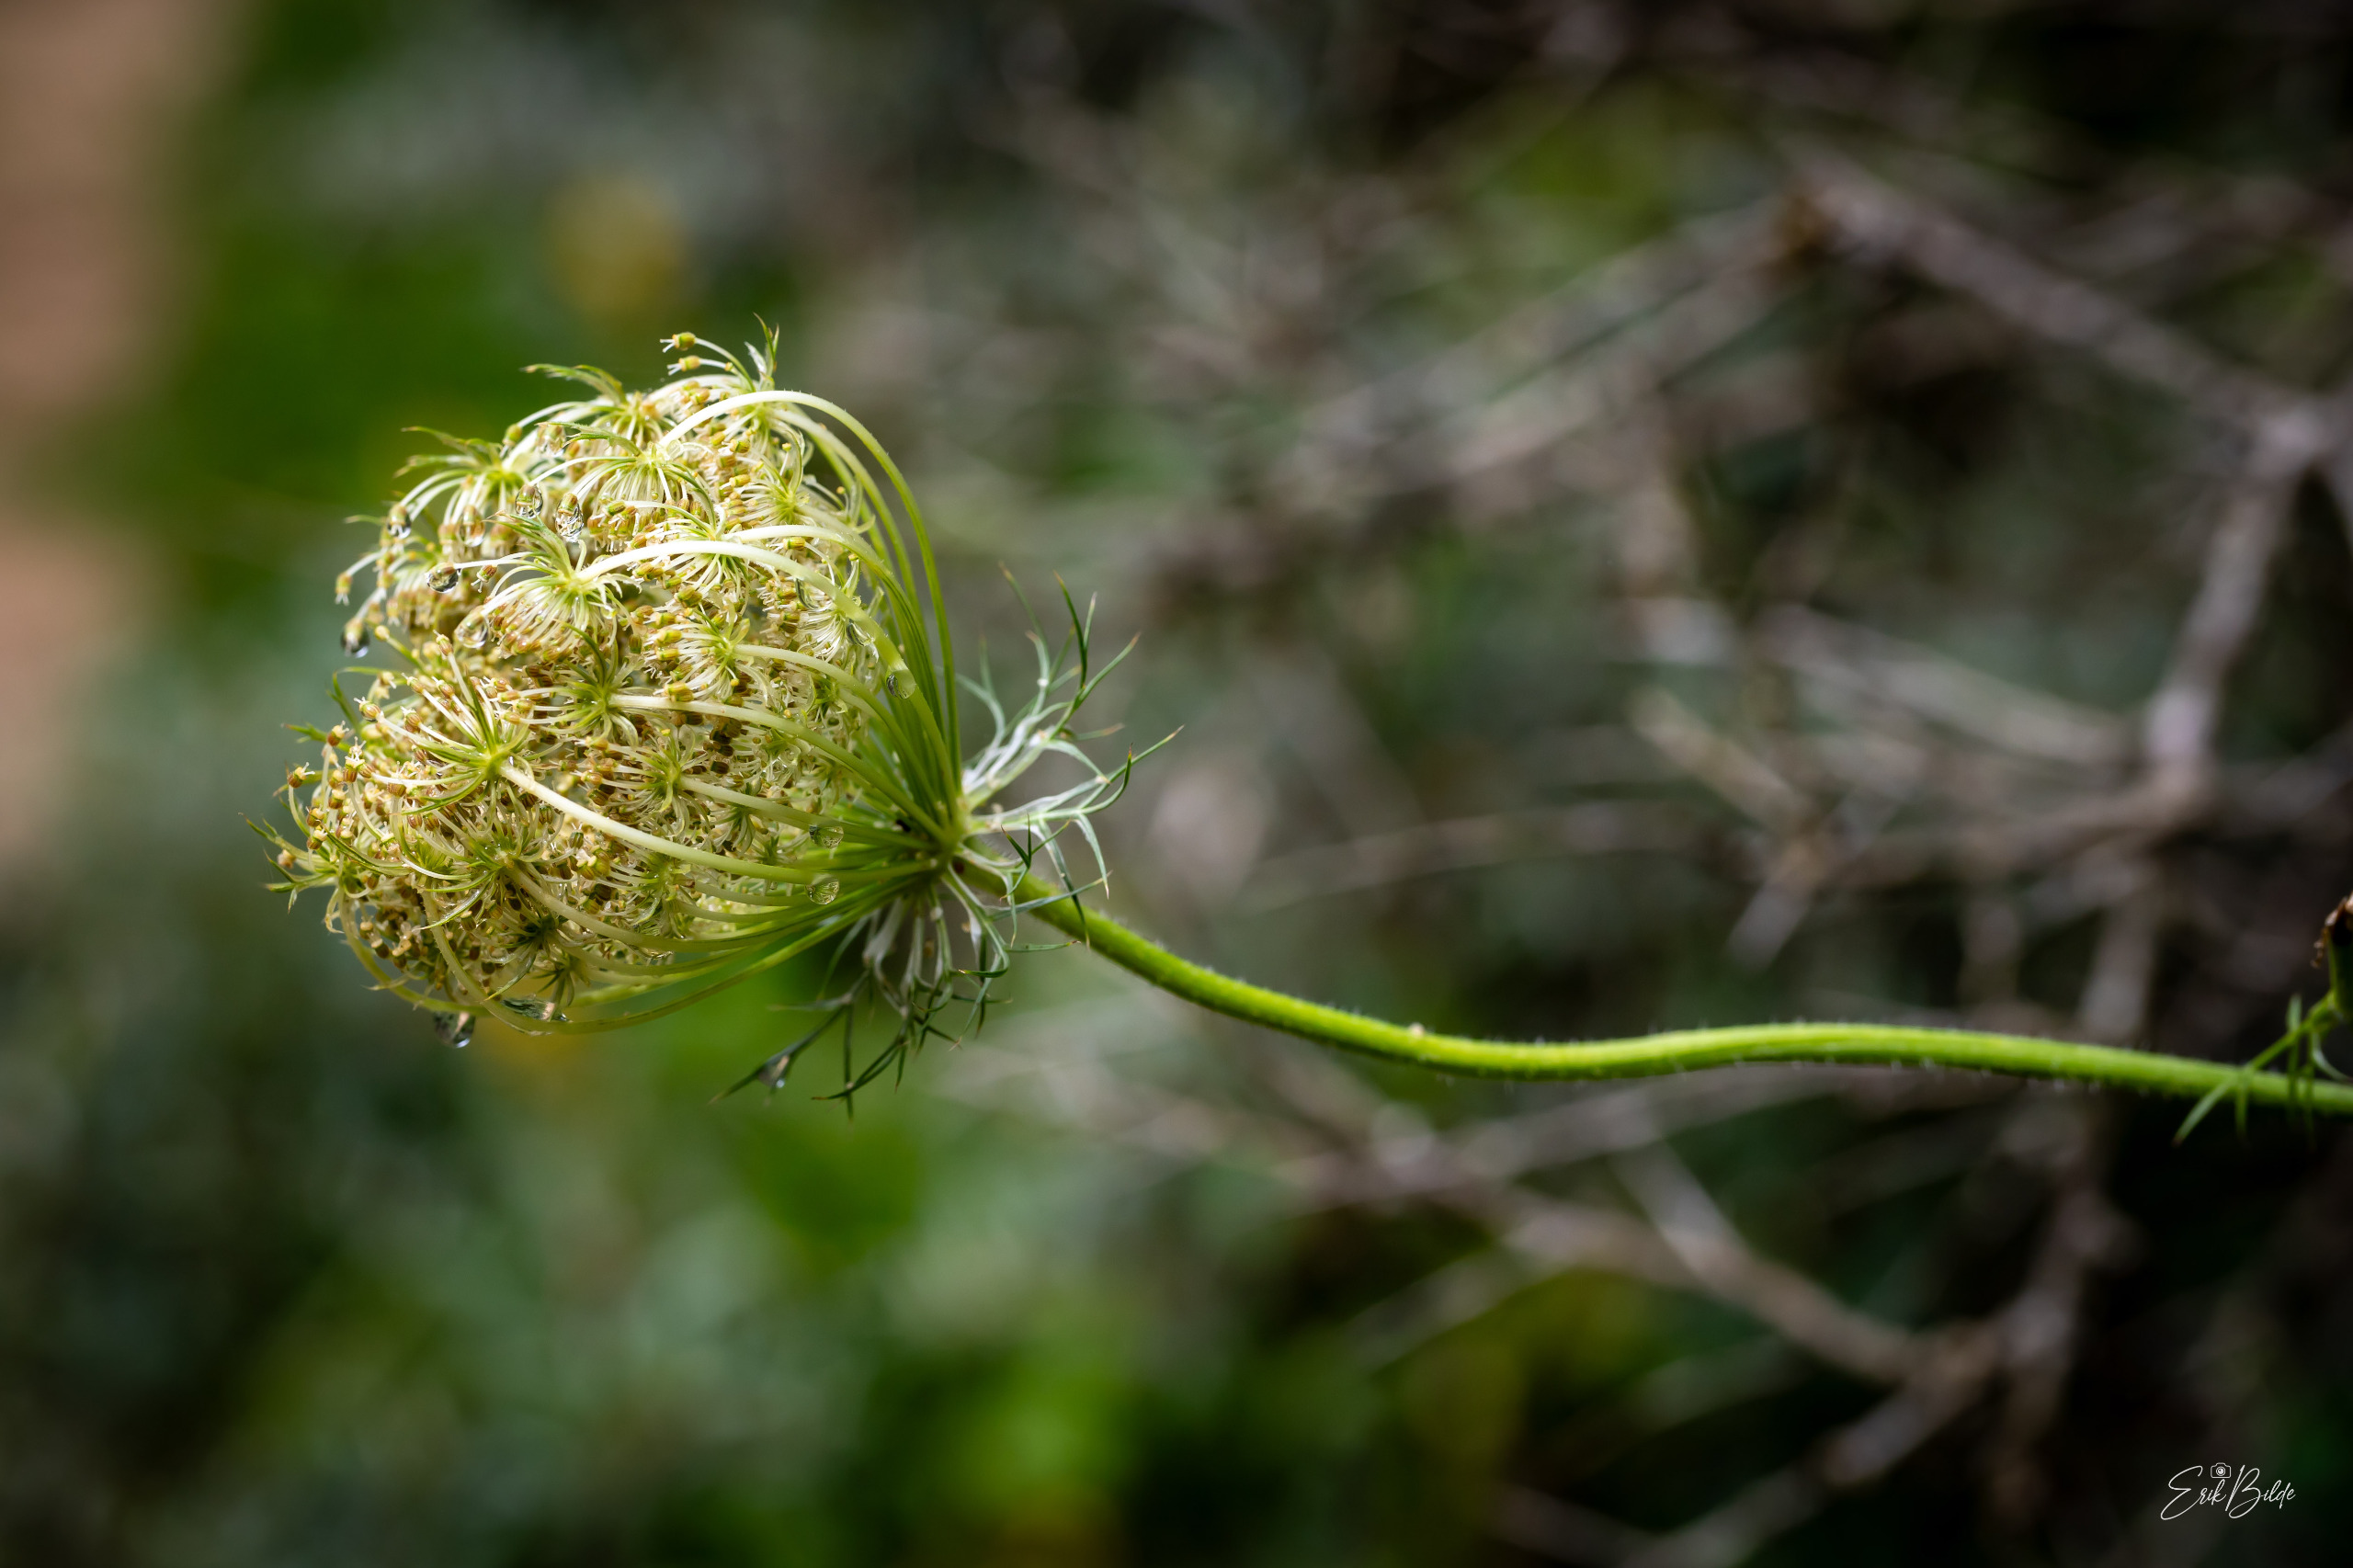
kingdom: Plantae
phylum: Tracheophyta
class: Magnoliopsida
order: Apiales
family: Apiaceae
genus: Daucus
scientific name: Daucus carota
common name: Gulerod
